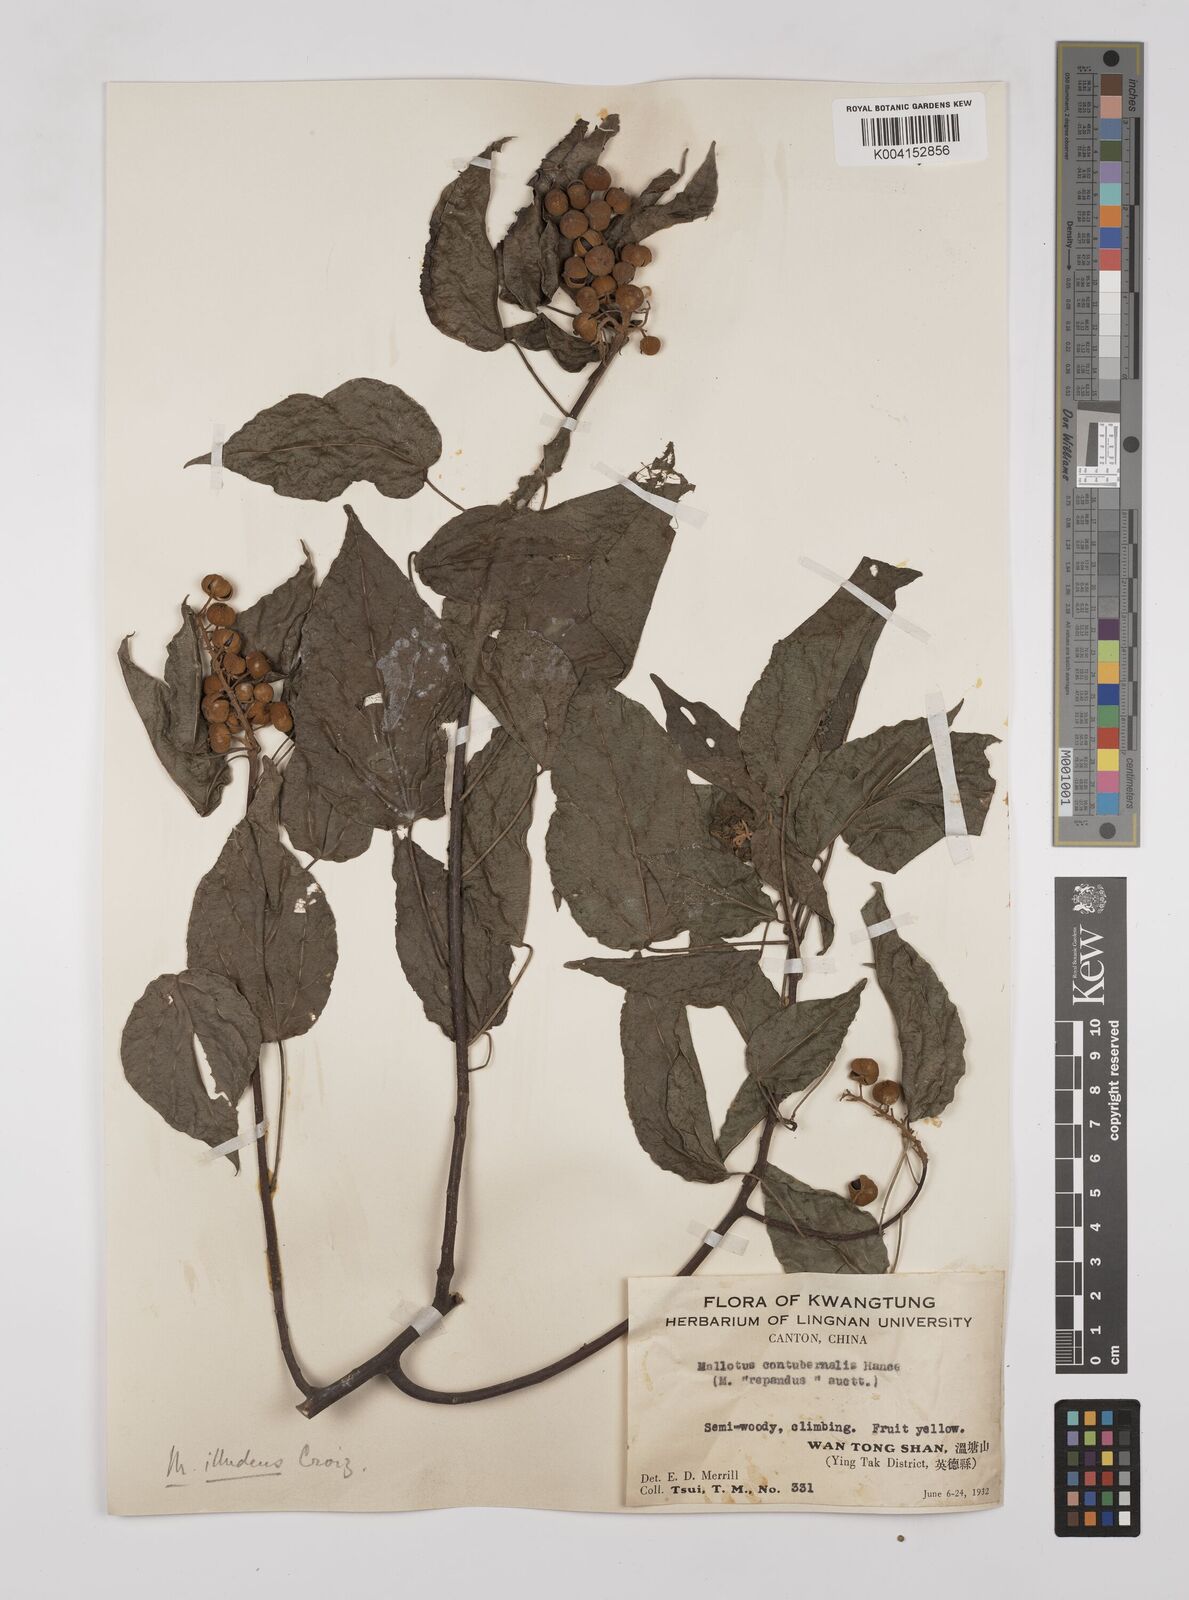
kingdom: Plantae
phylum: Tracheophyta
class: Magnoliopsida
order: Malpighiales
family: Euphorbiaceae
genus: Mallotus
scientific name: Mallotus illudens
